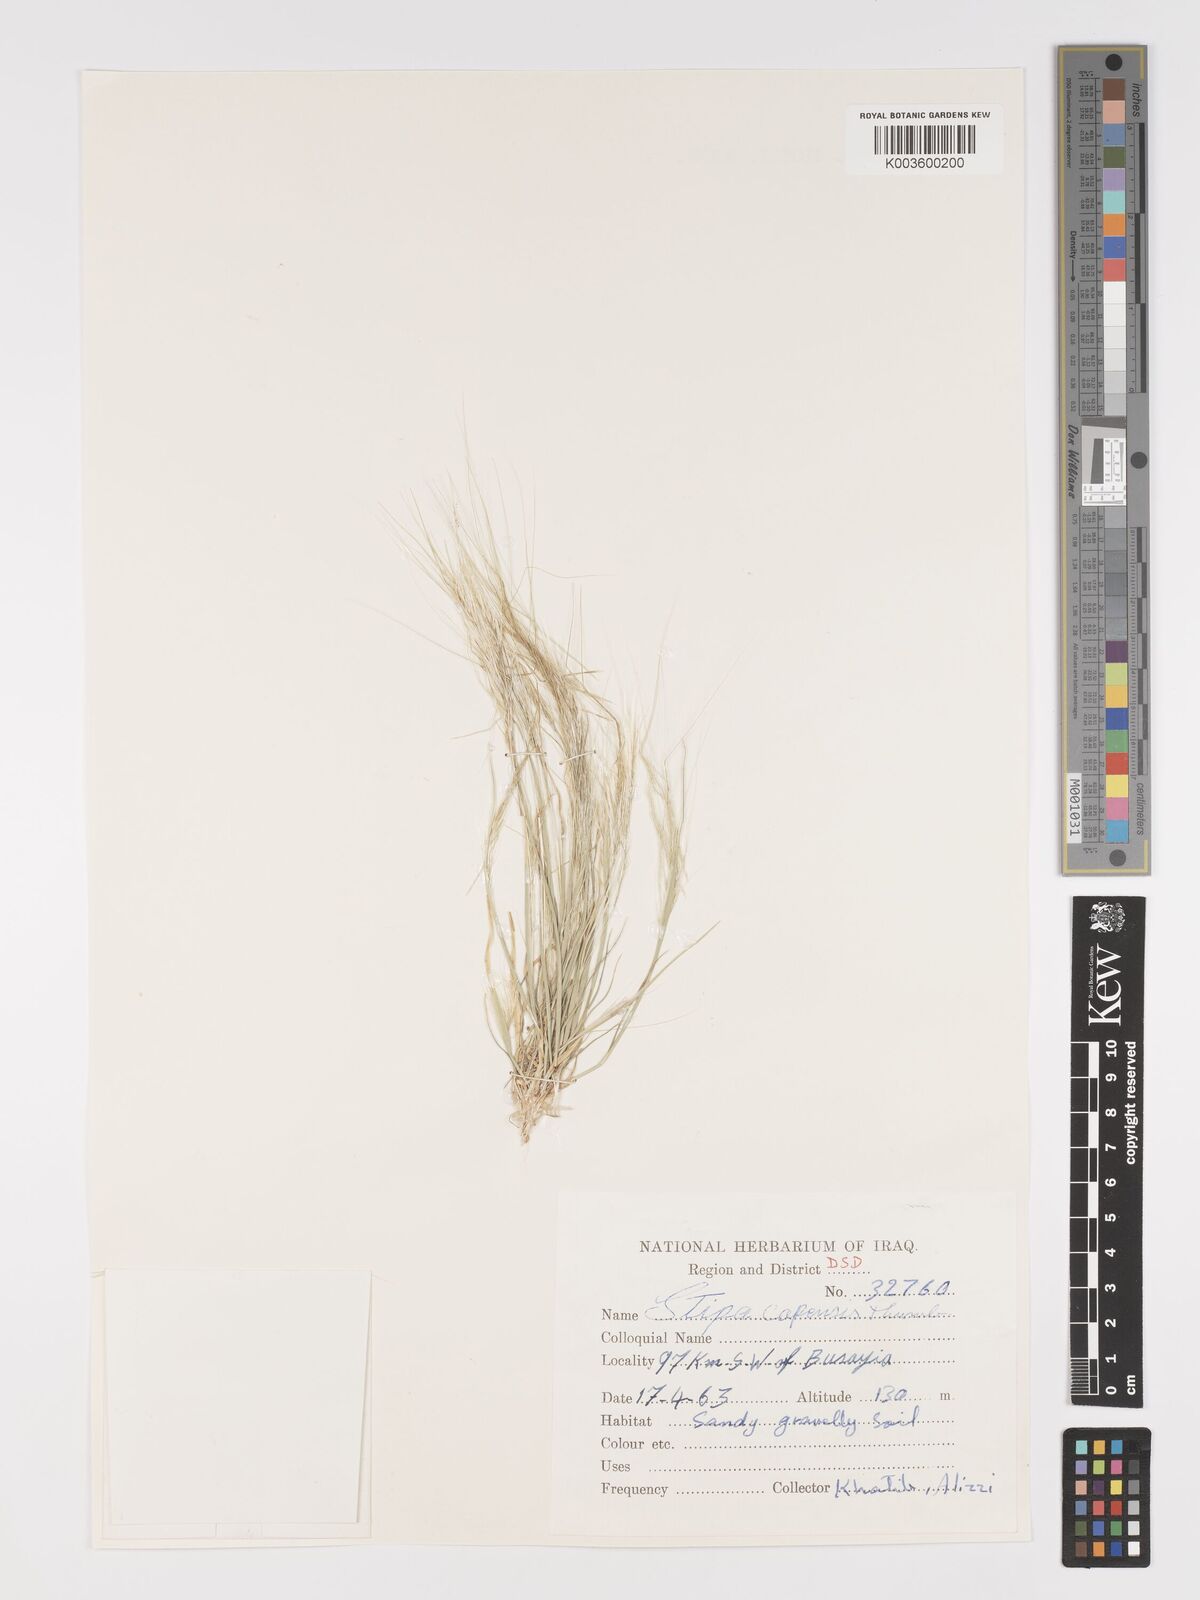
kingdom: Plantae
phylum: Tracheophyta
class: Liliopsida
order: Poales
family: Poaceae
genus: Stipellula
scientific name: Stipellula capensis
